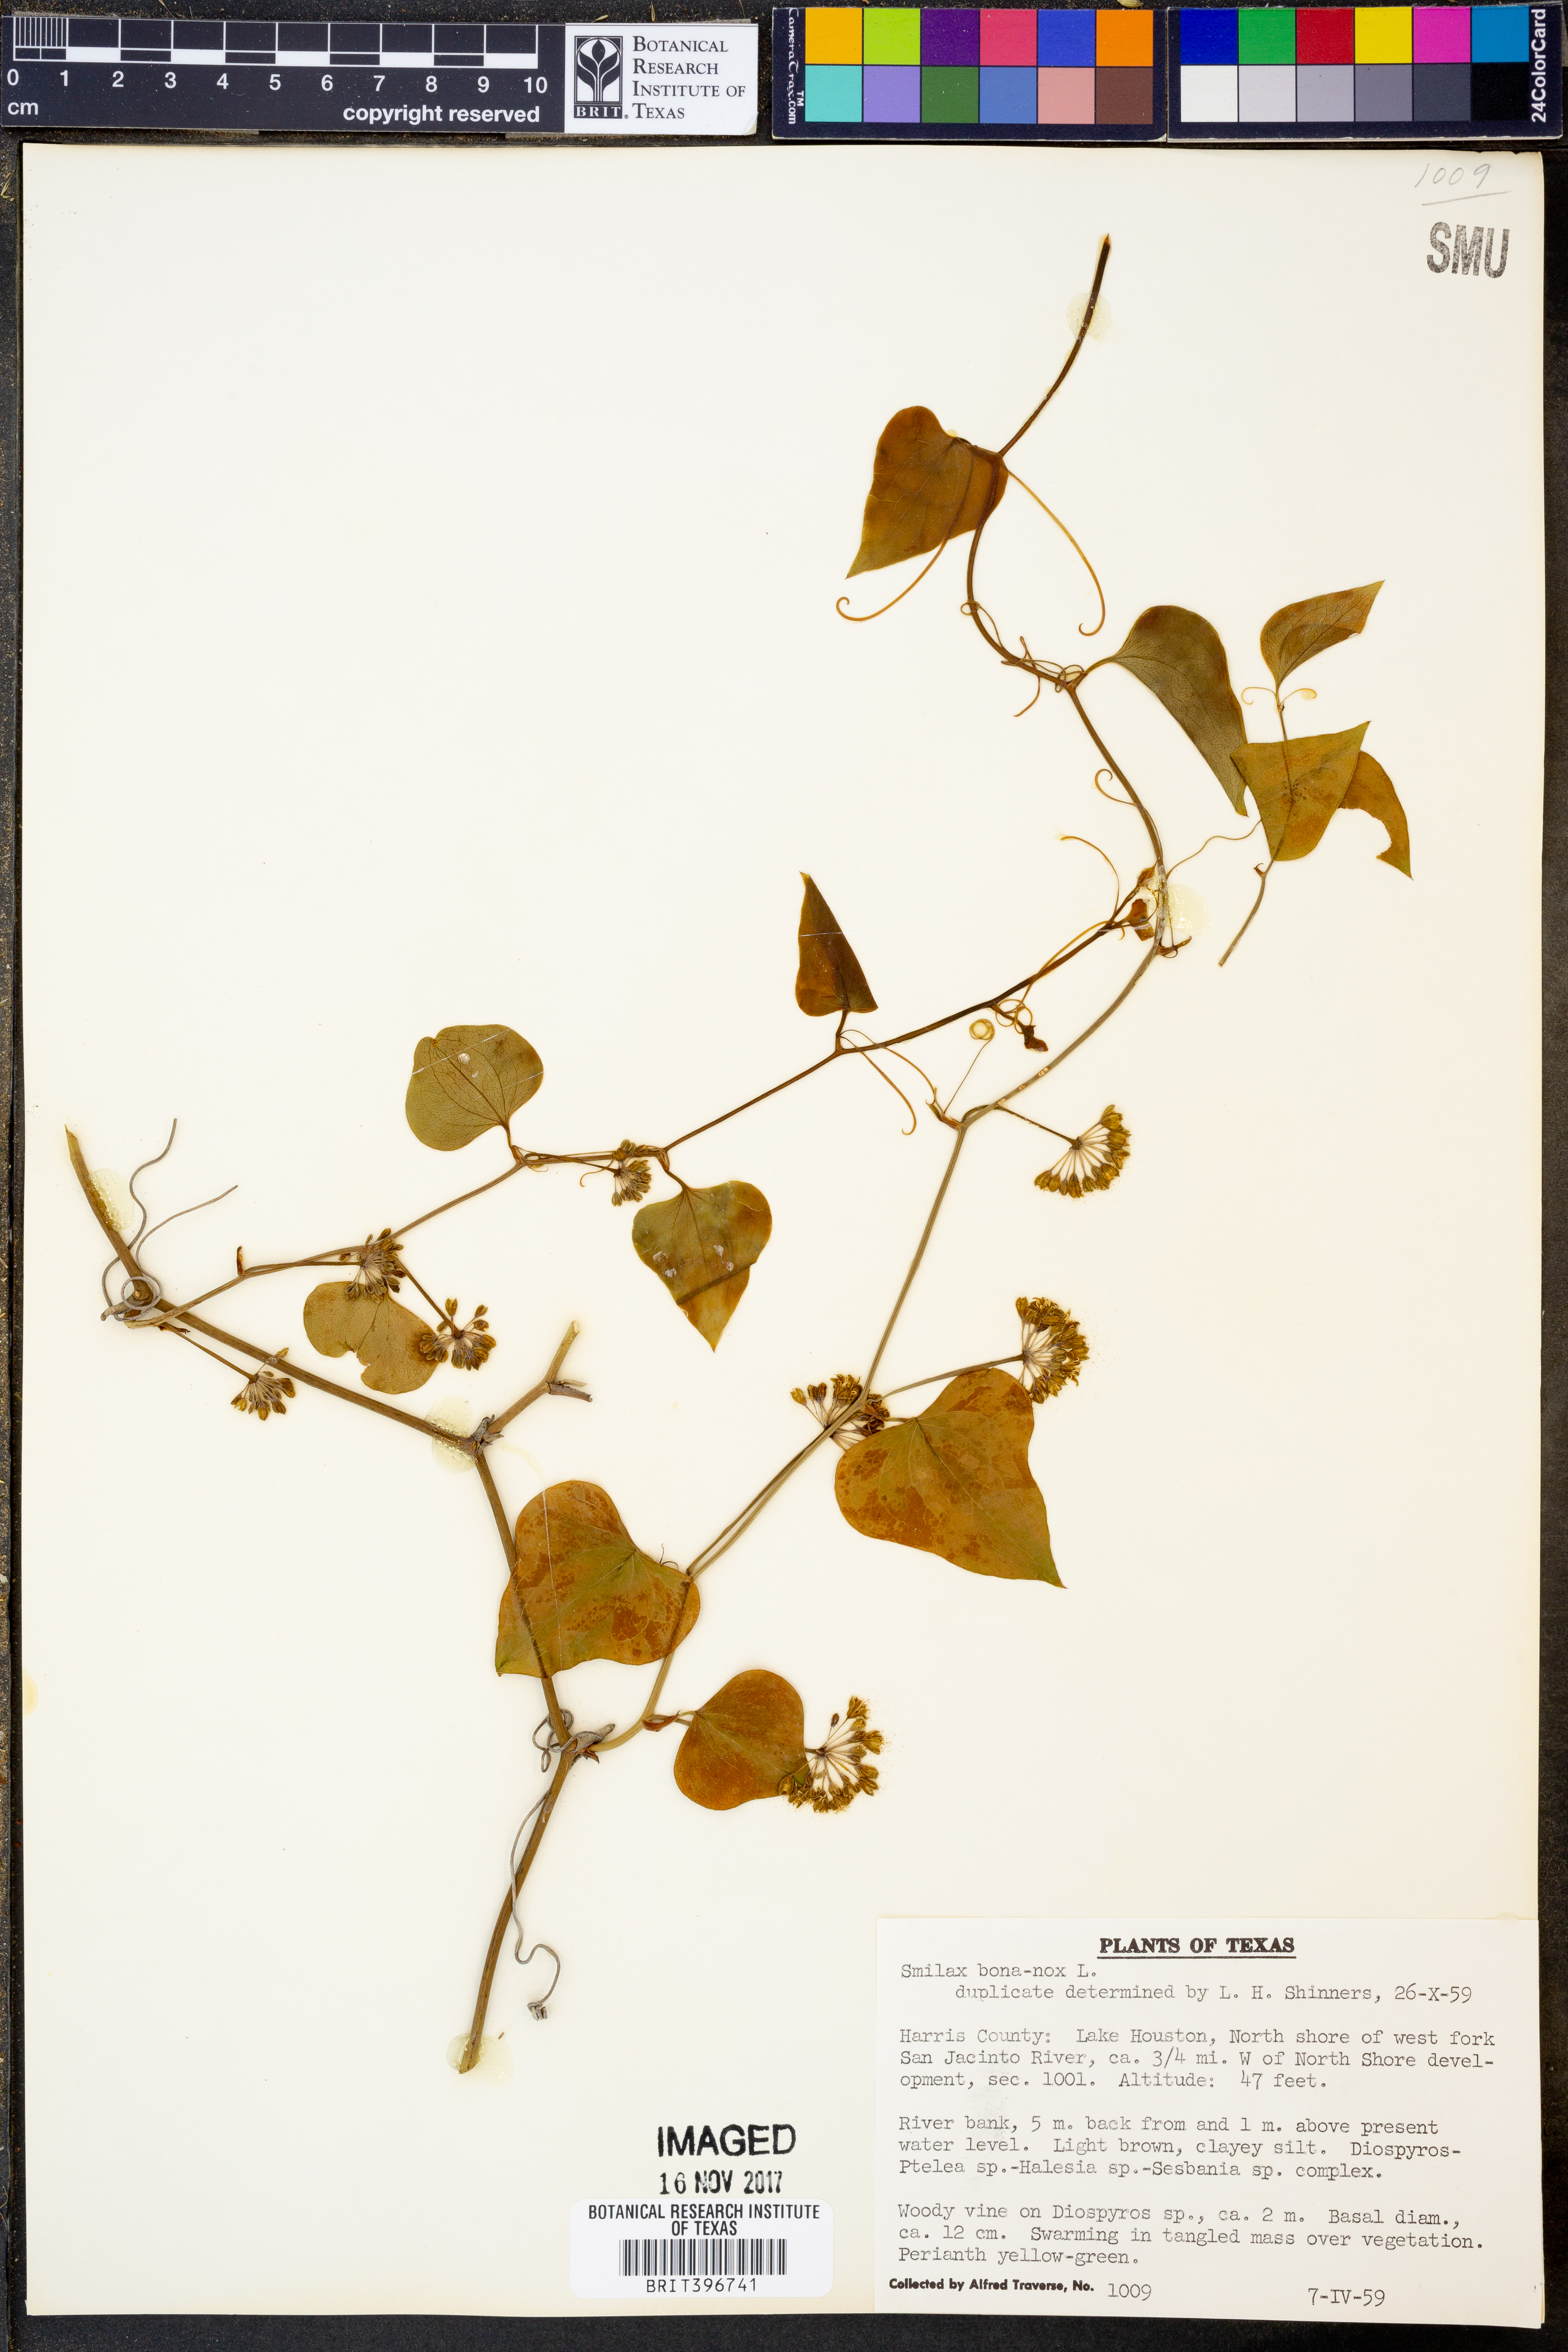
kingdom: Plantae
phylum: Tracheophyta
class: Liliopsida
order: Liliales
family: Smilacaceae
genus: Smilax
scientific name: Smilax bona-nox
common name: Catbrier
